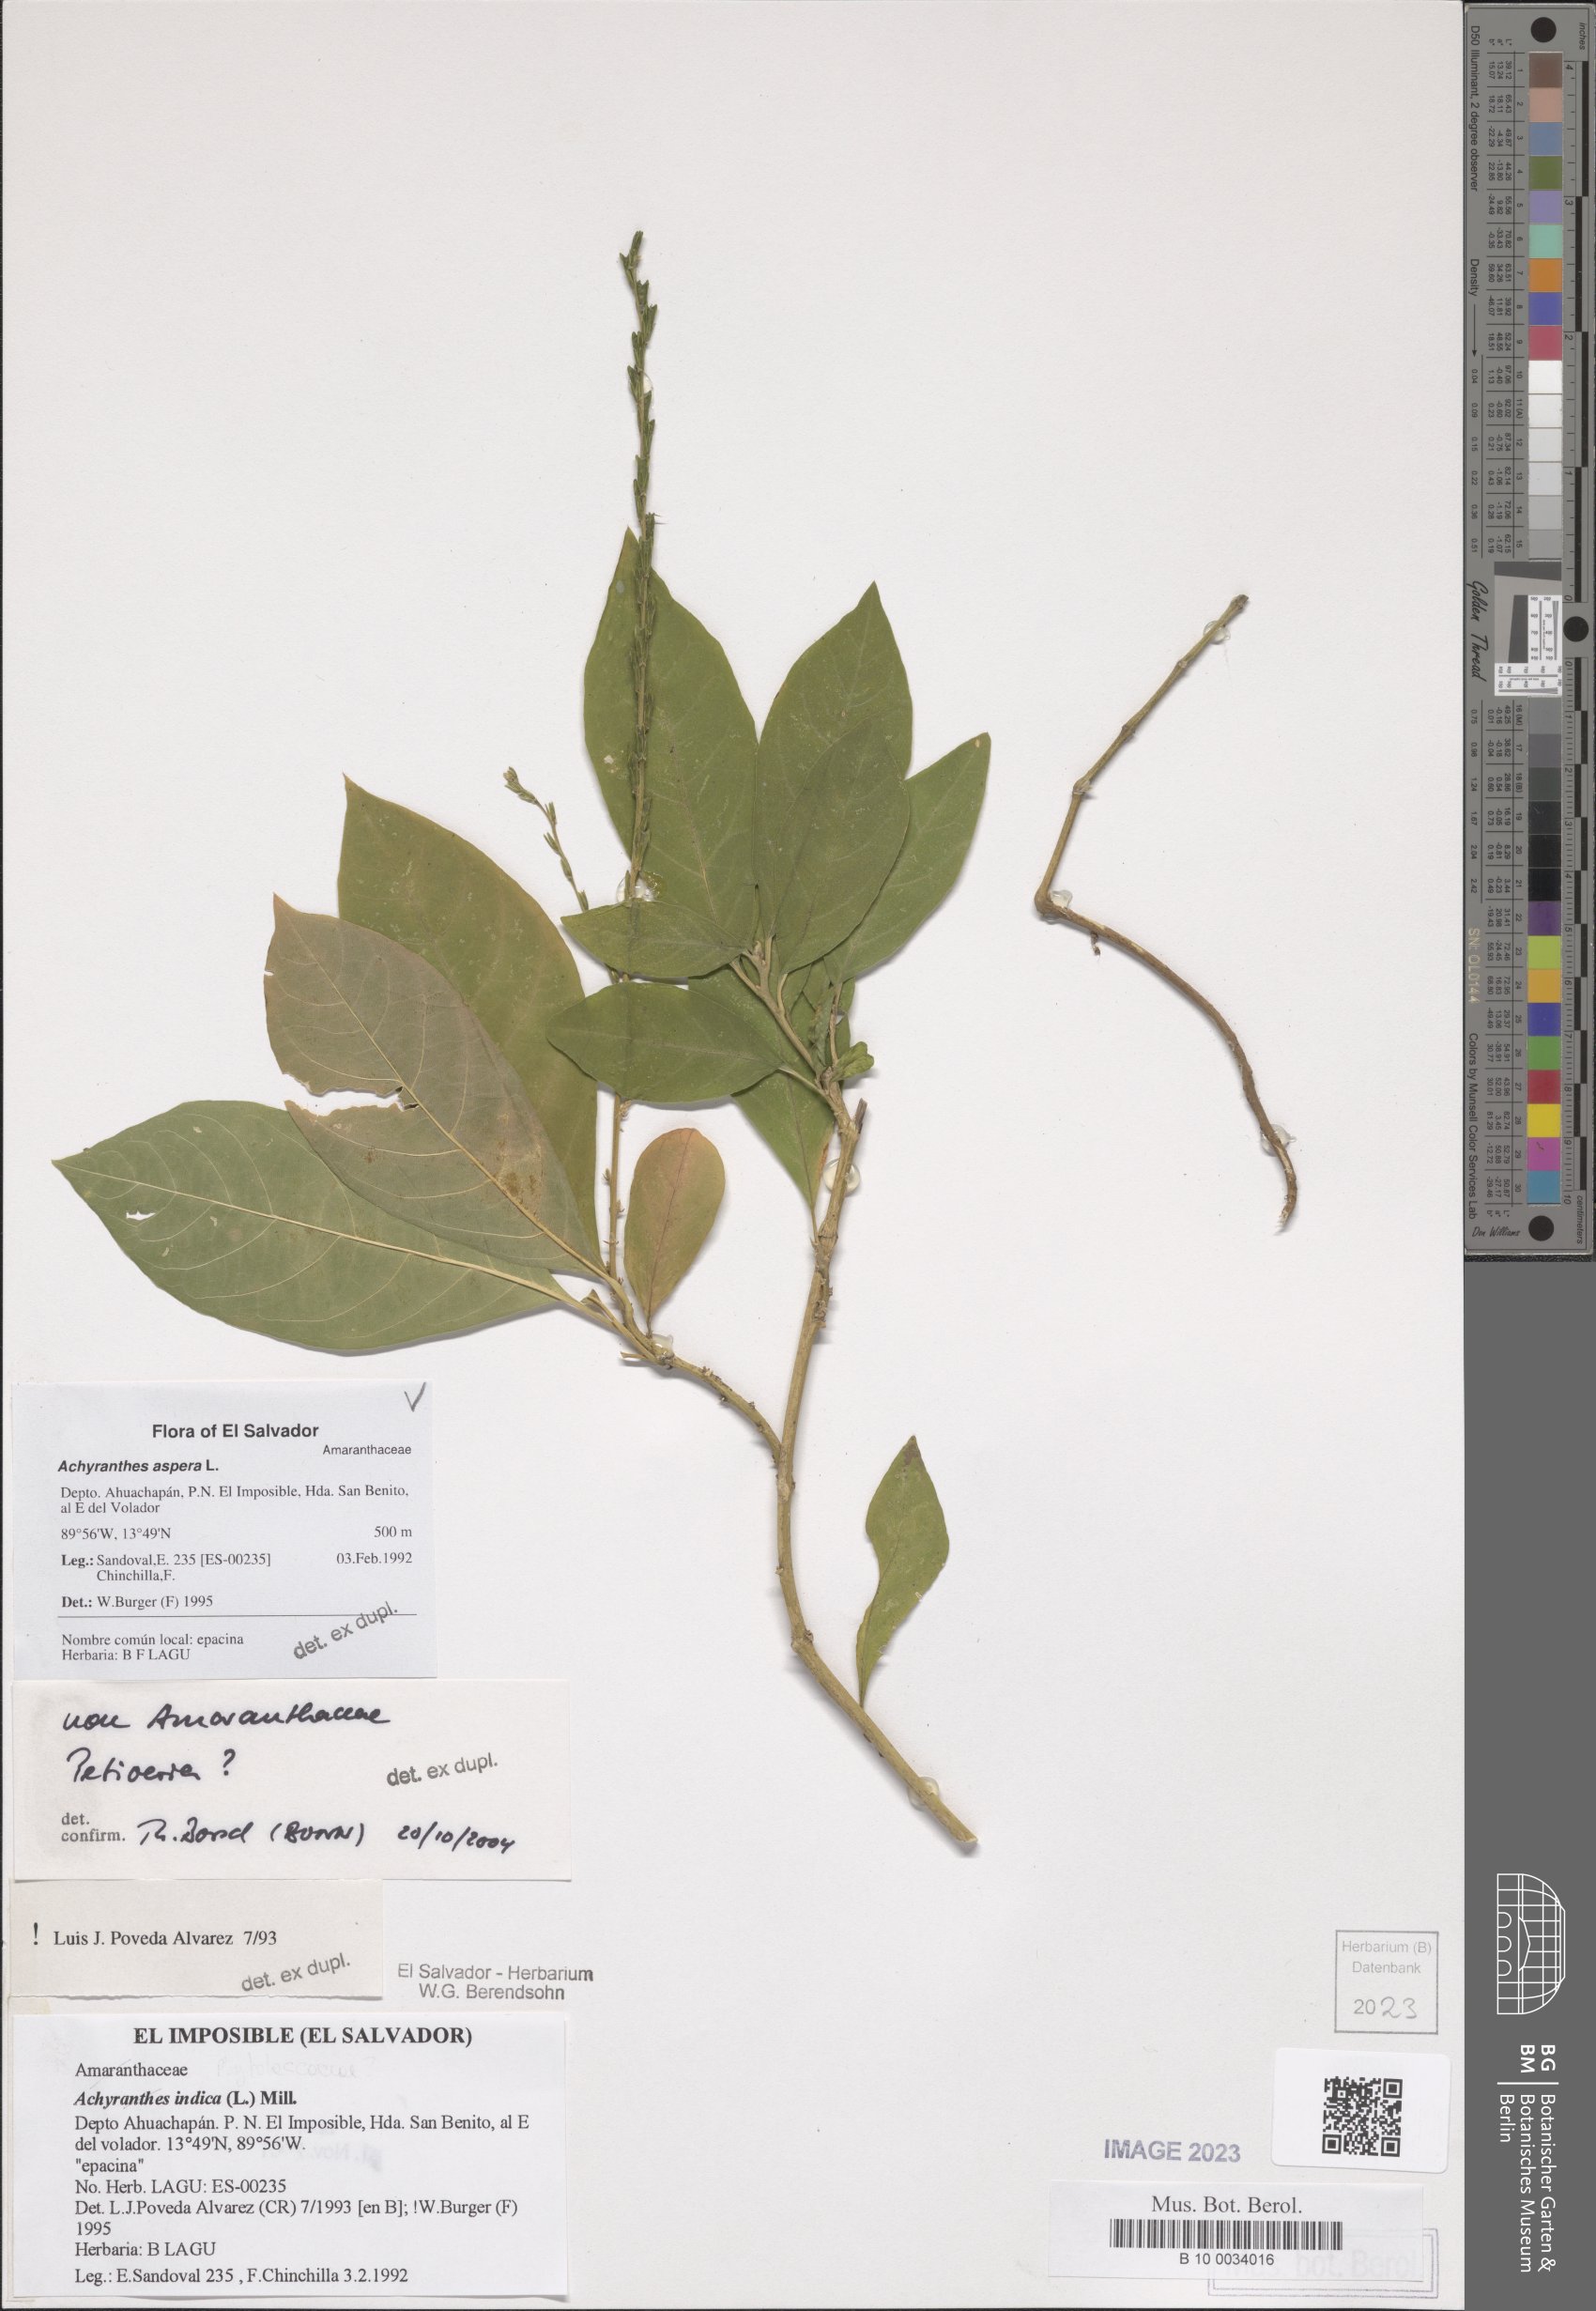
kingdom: Plantae
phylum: Tracheophyta
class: Magnoliopsida
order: Caryophyllales
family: Amaranthaceae
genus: Achyranthes
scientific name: Achyranthes aspera
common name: Devil's horsewhip
